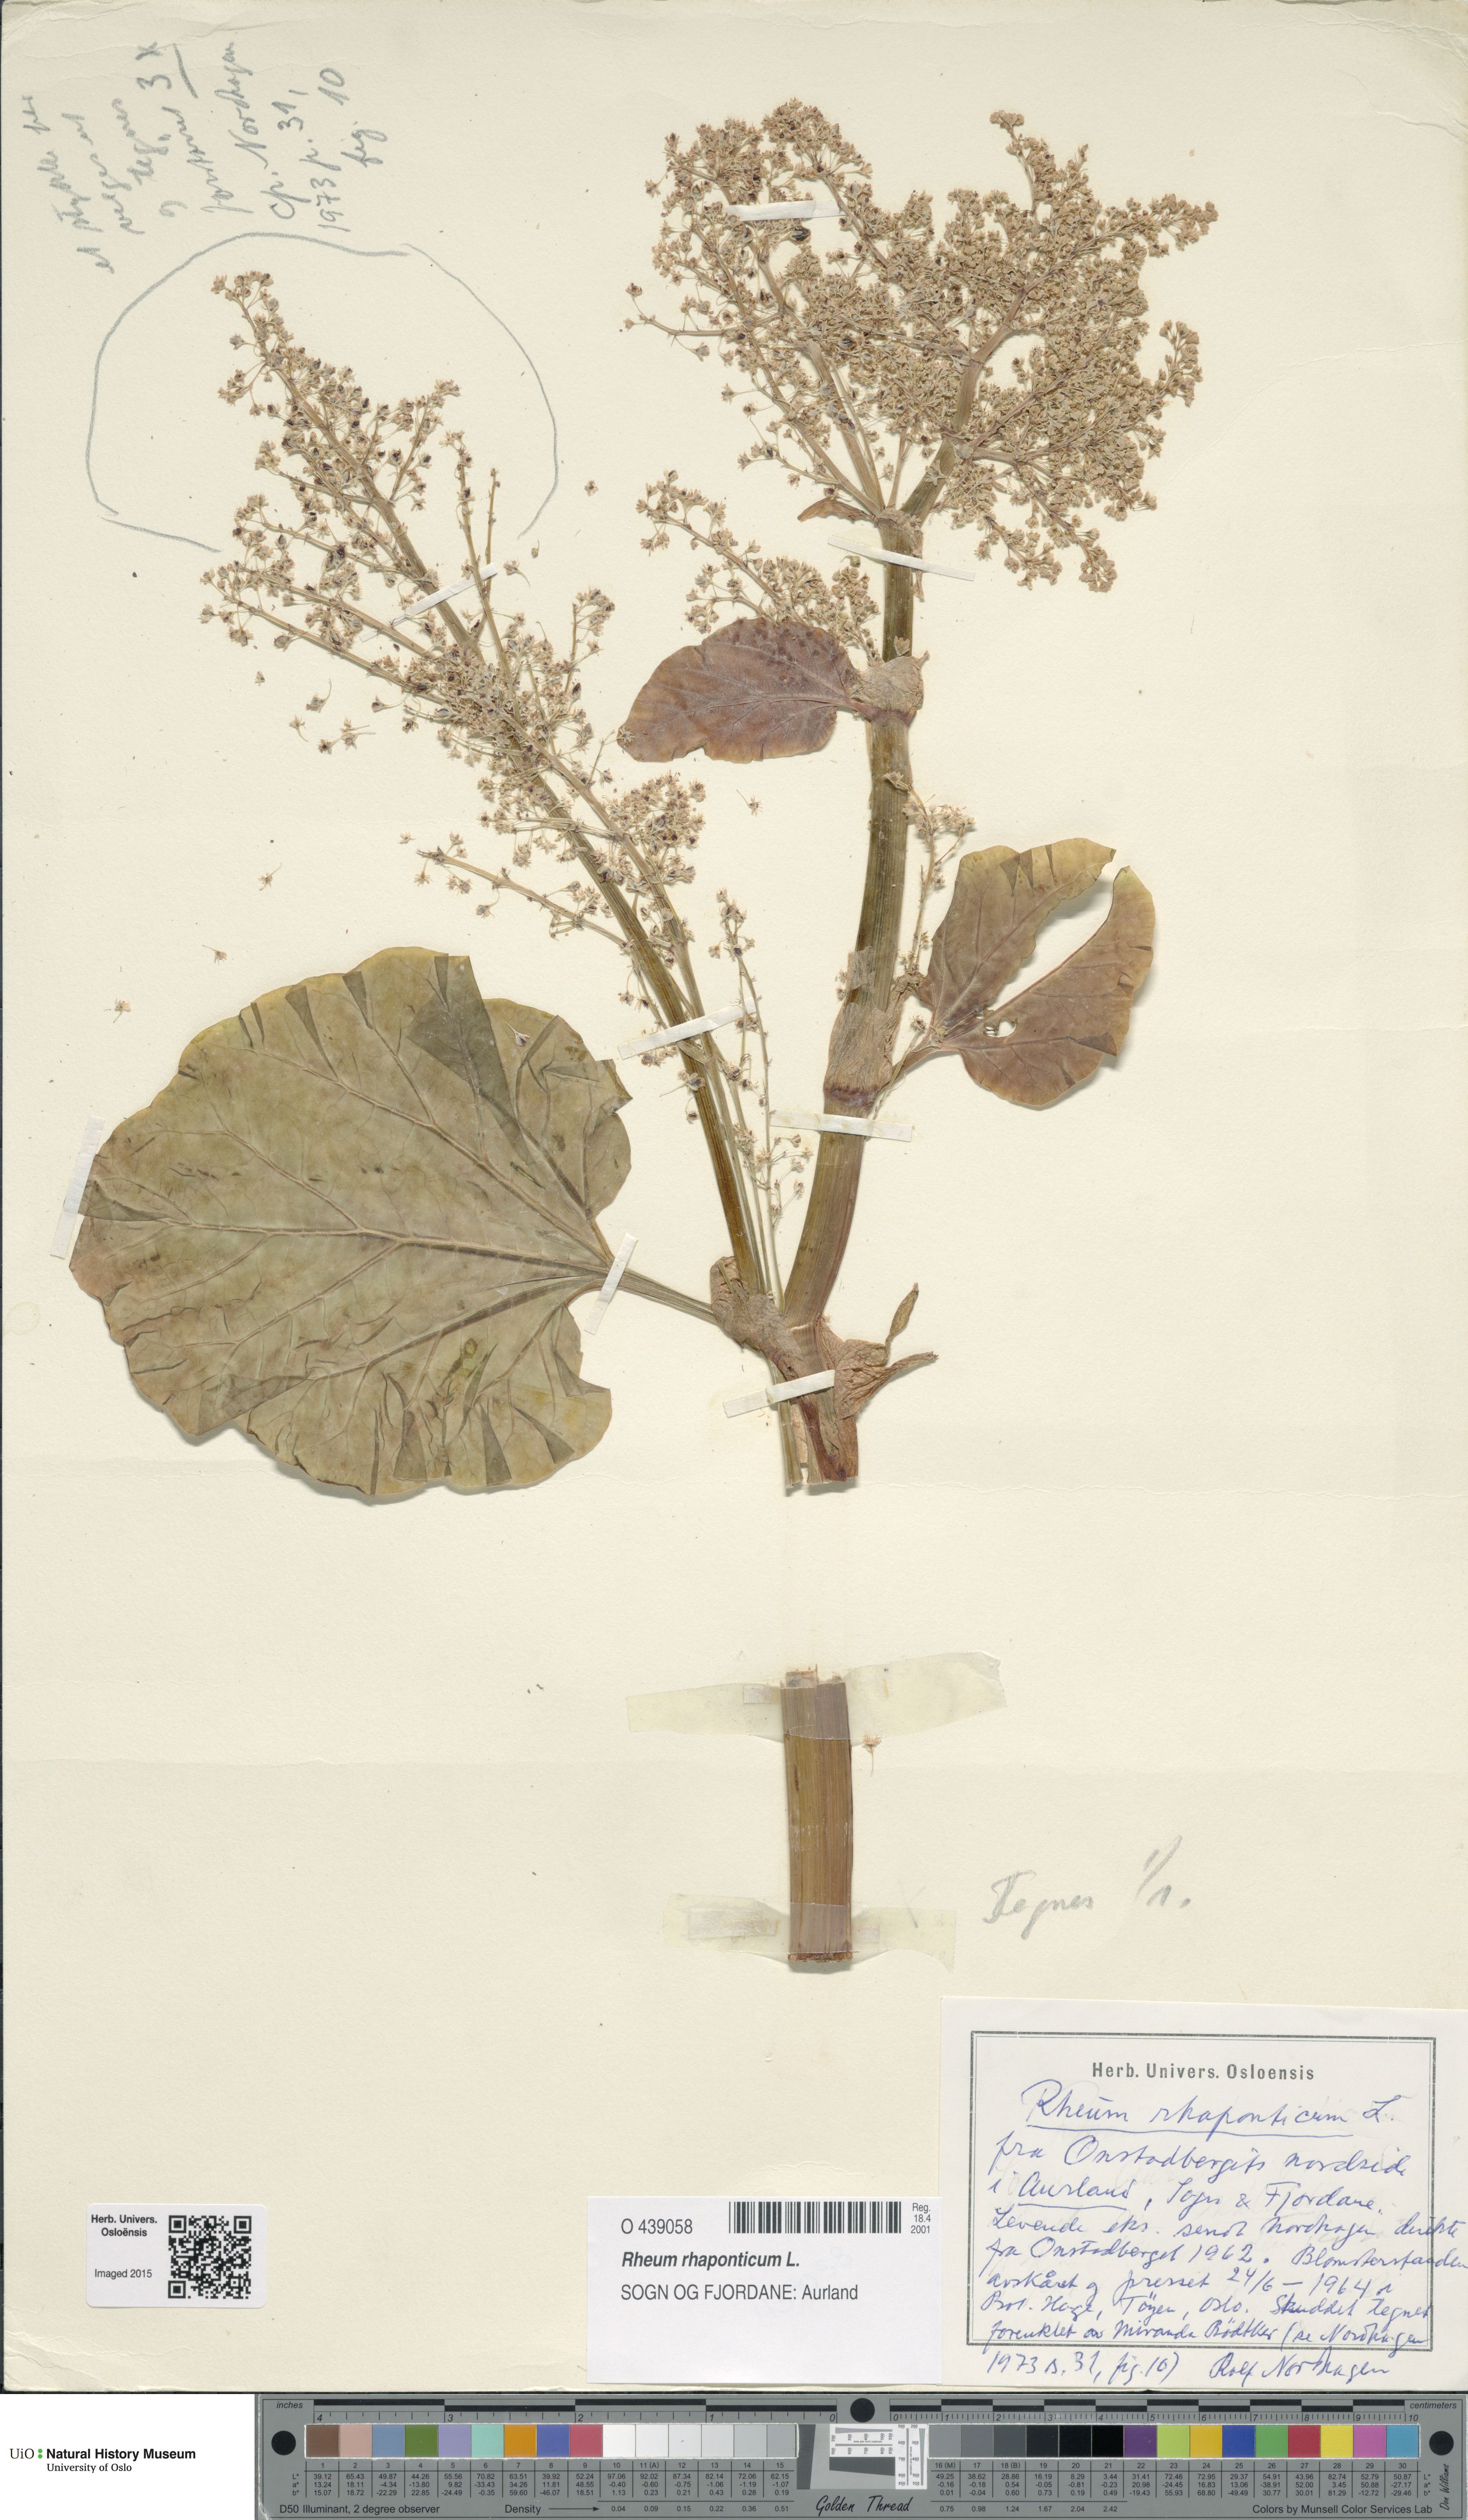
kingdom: Plantae
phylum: Tracheophyta
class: Magnoliopsida
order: Caryophyllales
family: Polygonaceae
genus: Rheum
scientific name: Rheum rhaponticum
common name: Rhubarb
